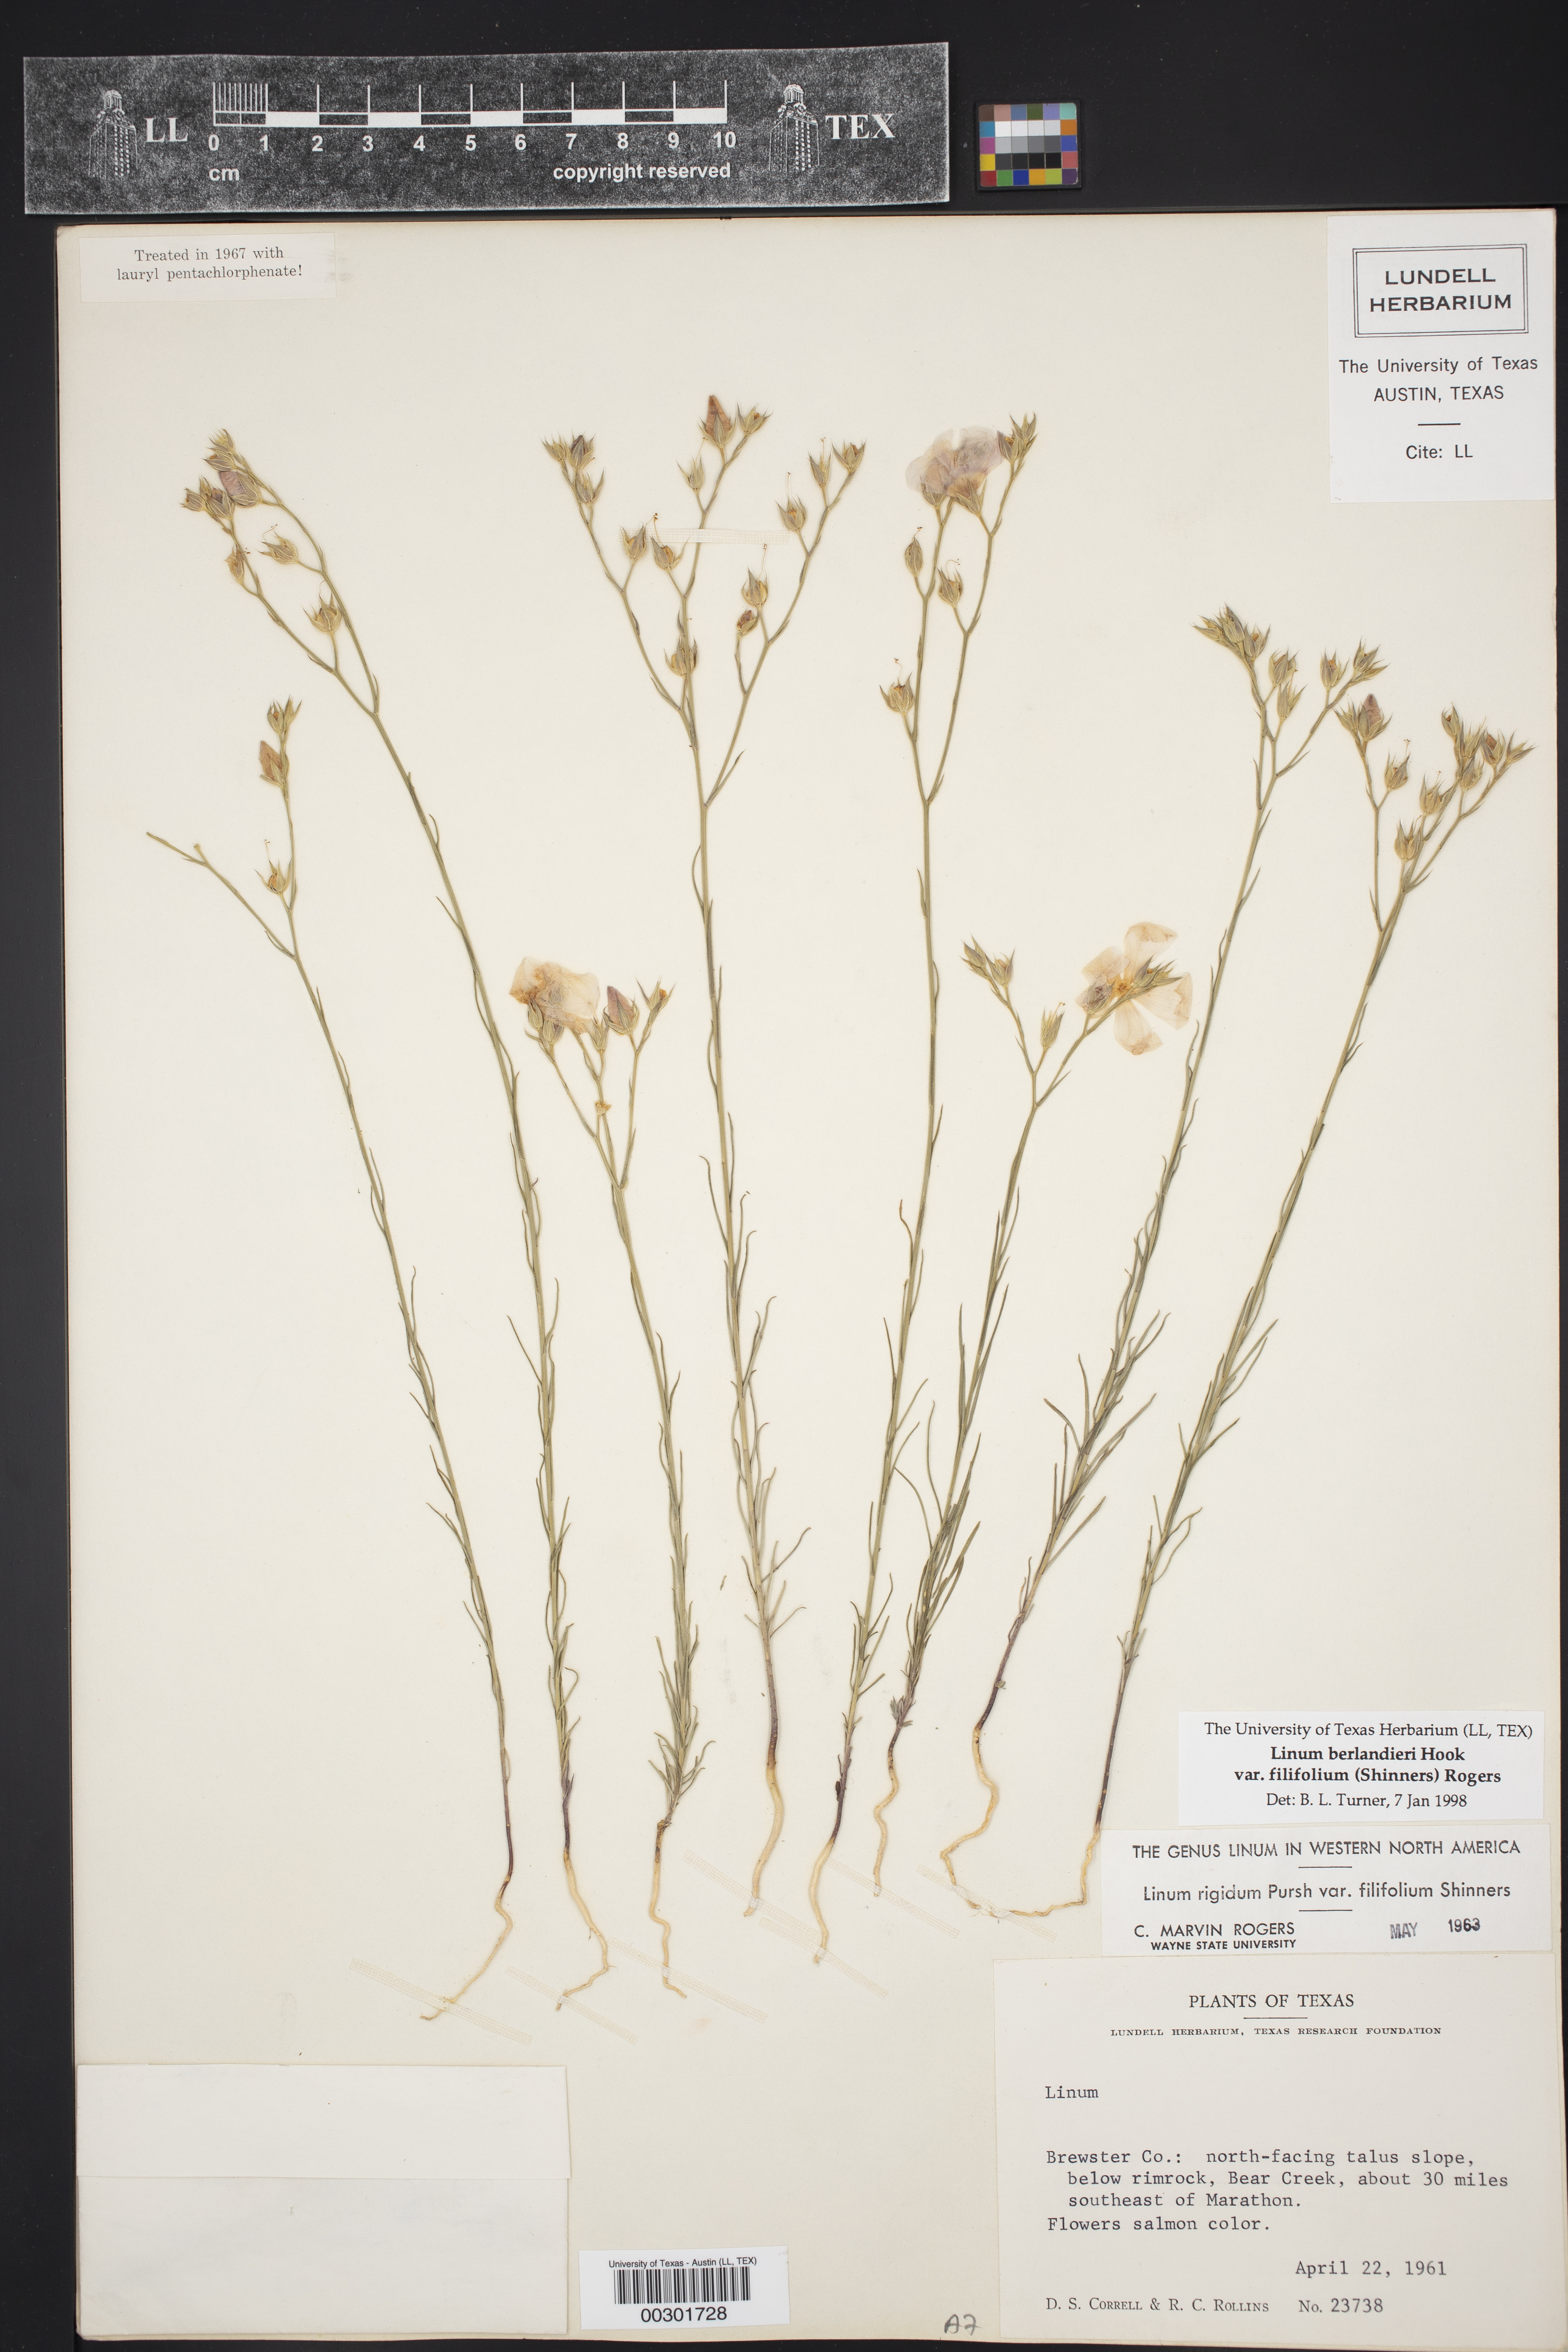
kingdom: Plantae
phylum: Tracheophyta
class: Magnoliopsida
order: Malpighiales
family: Linaceae
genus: Linum
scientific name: Linum berlandieri
